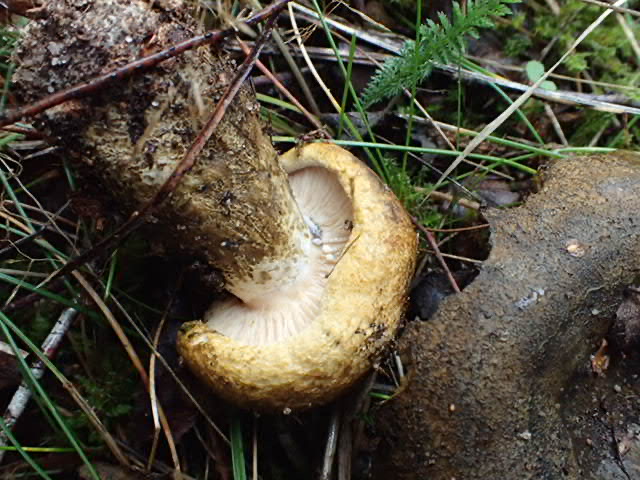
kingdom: Fungi
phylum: Basidiomycota
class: Agaricomycetes
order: Russulales
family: Russulaceae
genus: Lactarius
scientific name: Lactarius necator
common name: manddraber-mælkehat
